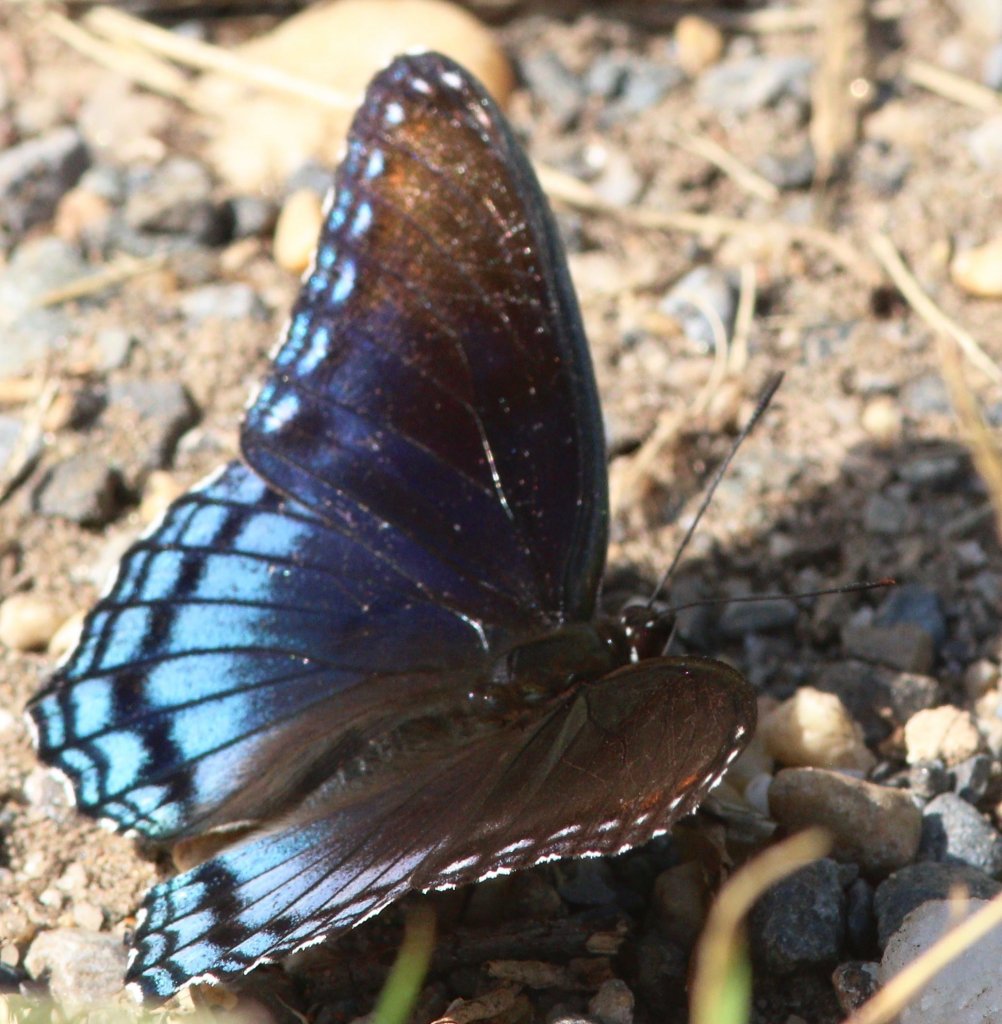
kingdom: Animalia
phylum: Arthropoda
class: Insecta
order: Lepidoptera
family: Nymphalidae
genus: Limenitis
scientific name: Limenitis astyanax
